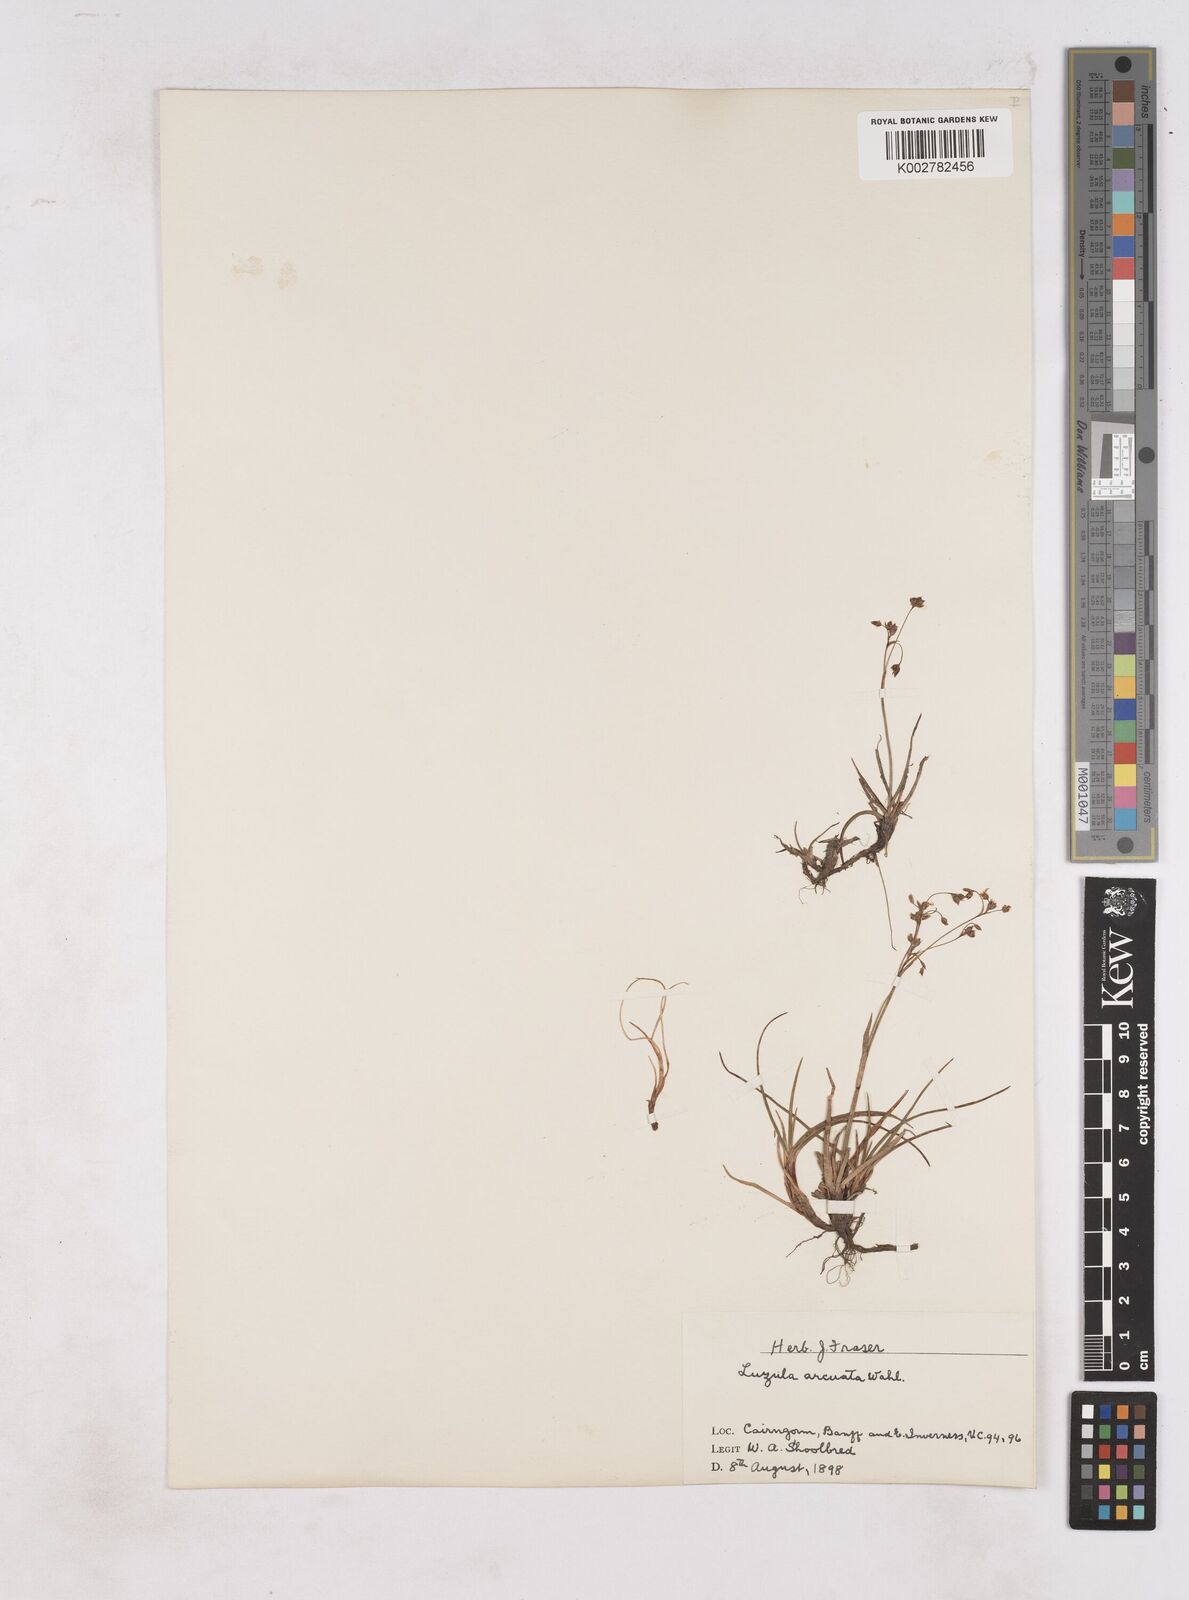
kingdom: Plantae
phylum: Tracheophyta
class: Liliopsida
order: Poales
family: Juncaceae
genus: Luzula
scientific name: Luzula arcuata
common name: Curved wood-rush
